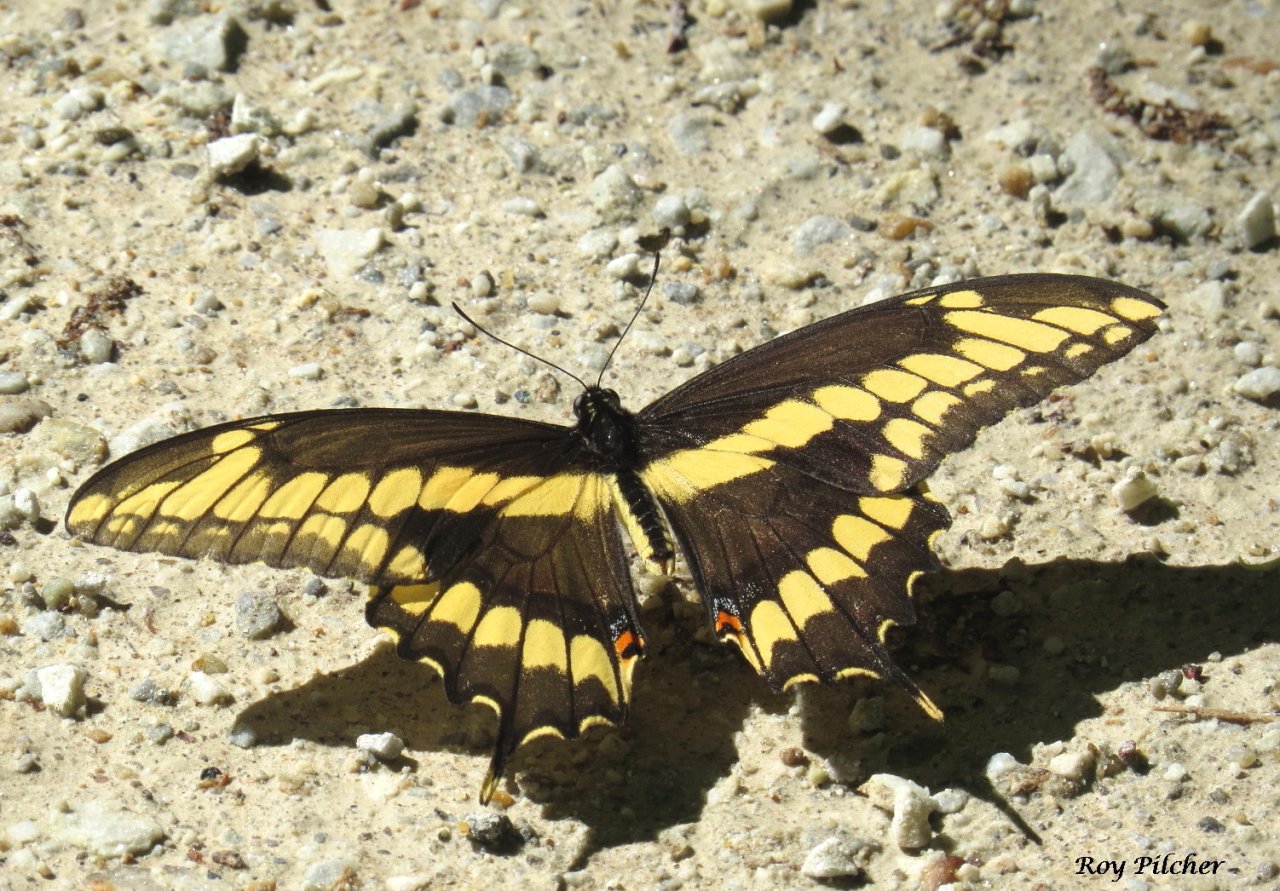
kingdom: Animalia
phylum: Arthropoda
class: Insecta
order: Lepidoptera
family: Papilionidae
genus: Papilio
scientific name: Papilio cresphontes
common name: Eastern Giant Swallowtail
